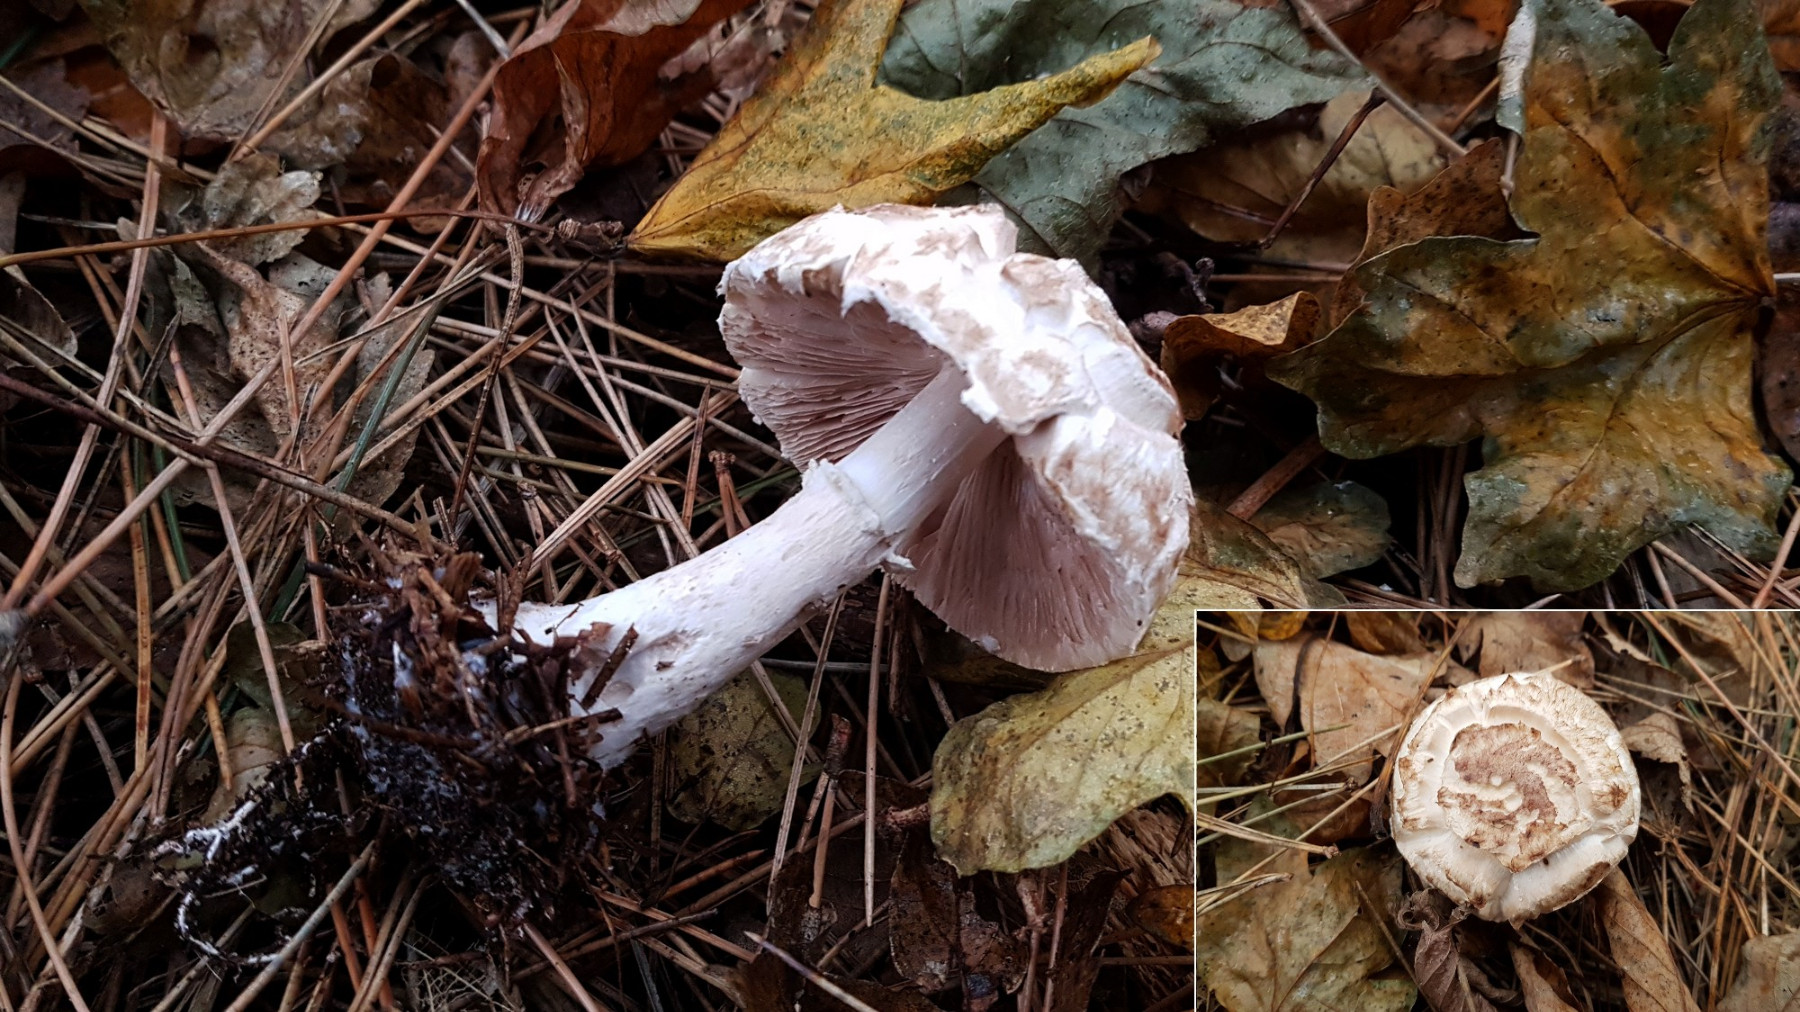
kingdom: Fungi
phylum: Basidiomycota
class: Agaricomycetes
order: Agaricales
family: Agaricaceae
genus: Agaricus
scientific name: Agaricus impudicus
